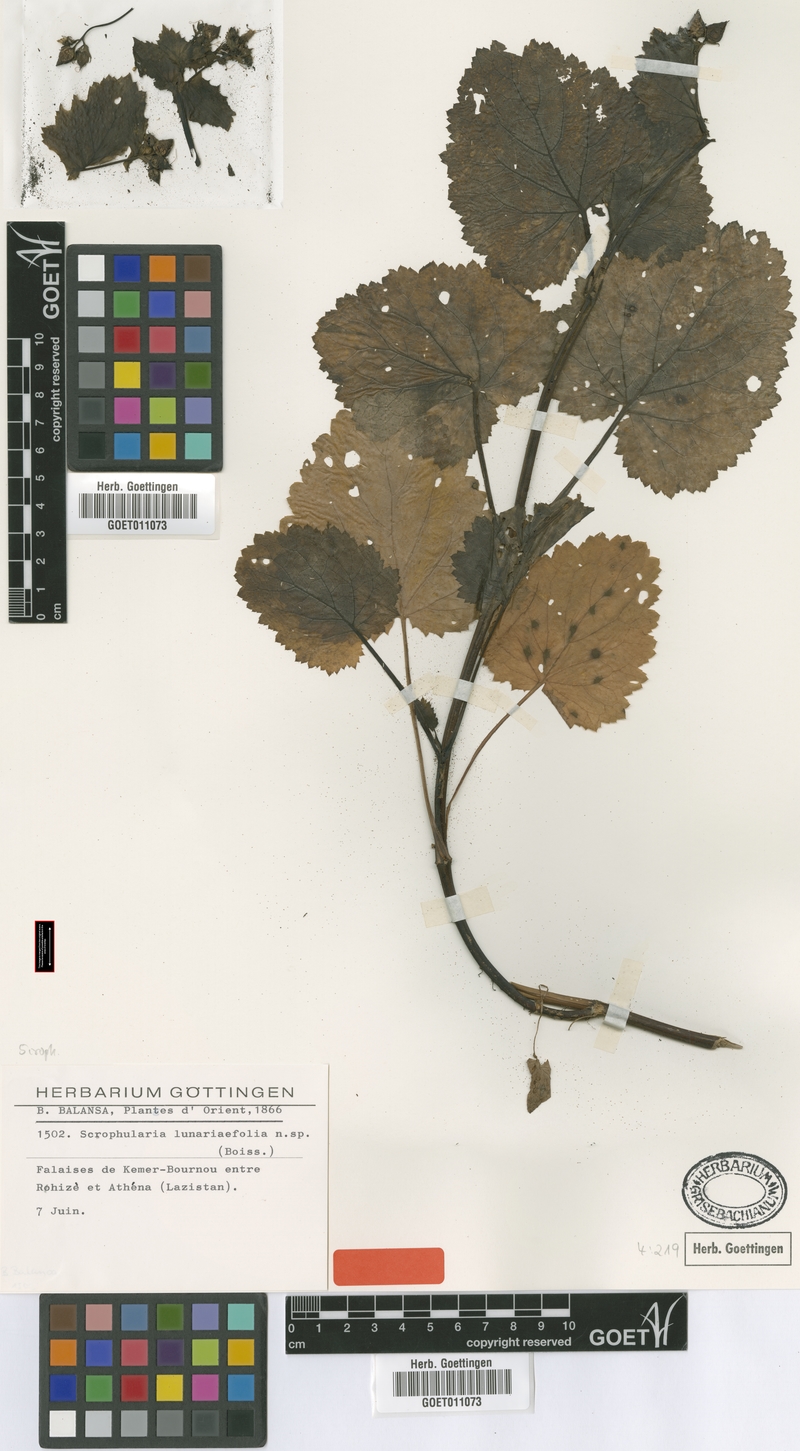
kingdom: Plantae
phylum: Tracheophyta
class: Magnoliopsida
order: Lamiales
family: Scrophulariaceae
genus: Scrophularia
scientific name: Scrophularia chrysantha
